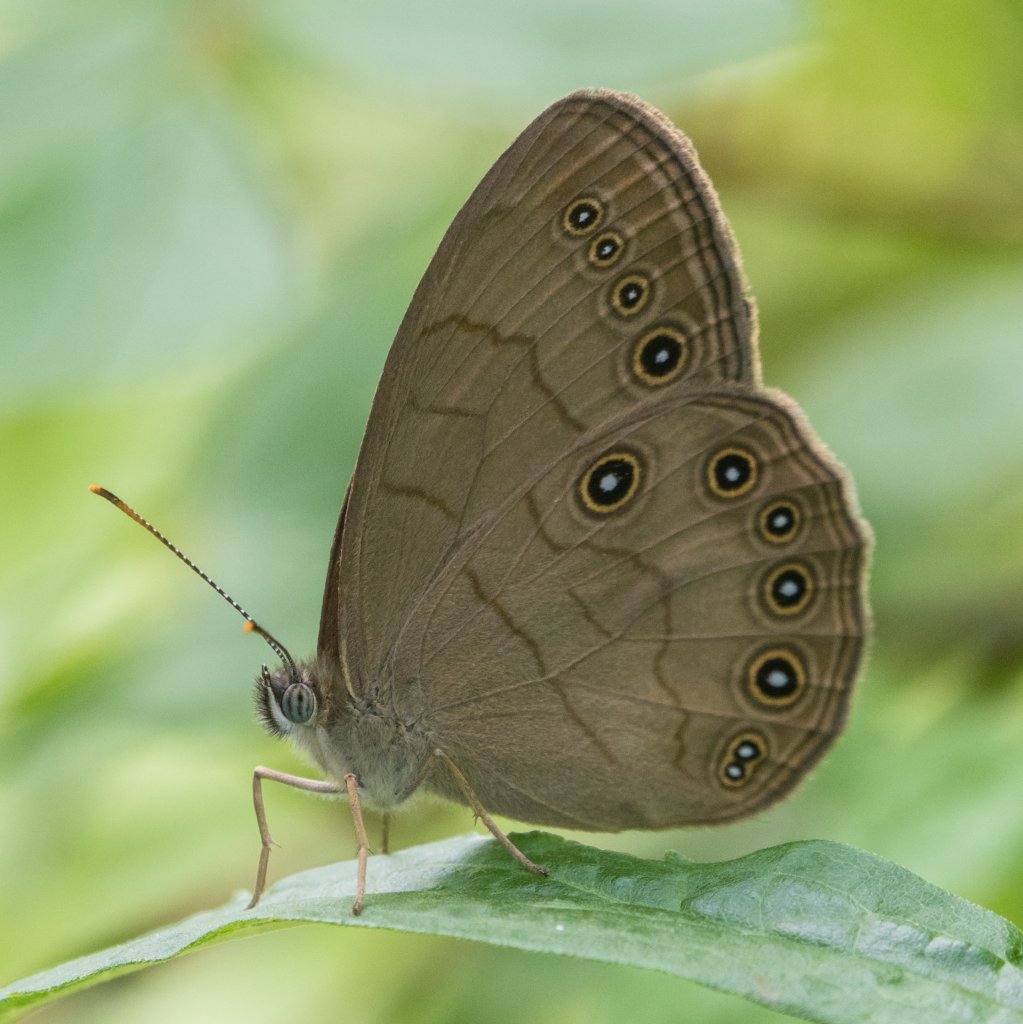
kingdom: Animalia
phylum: Arthropoda
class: Insecta
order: Lepidoptera
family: Nymphalidae
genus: Lethe
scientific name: Lethe eurydice
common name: Appalachian Eyed Brown
